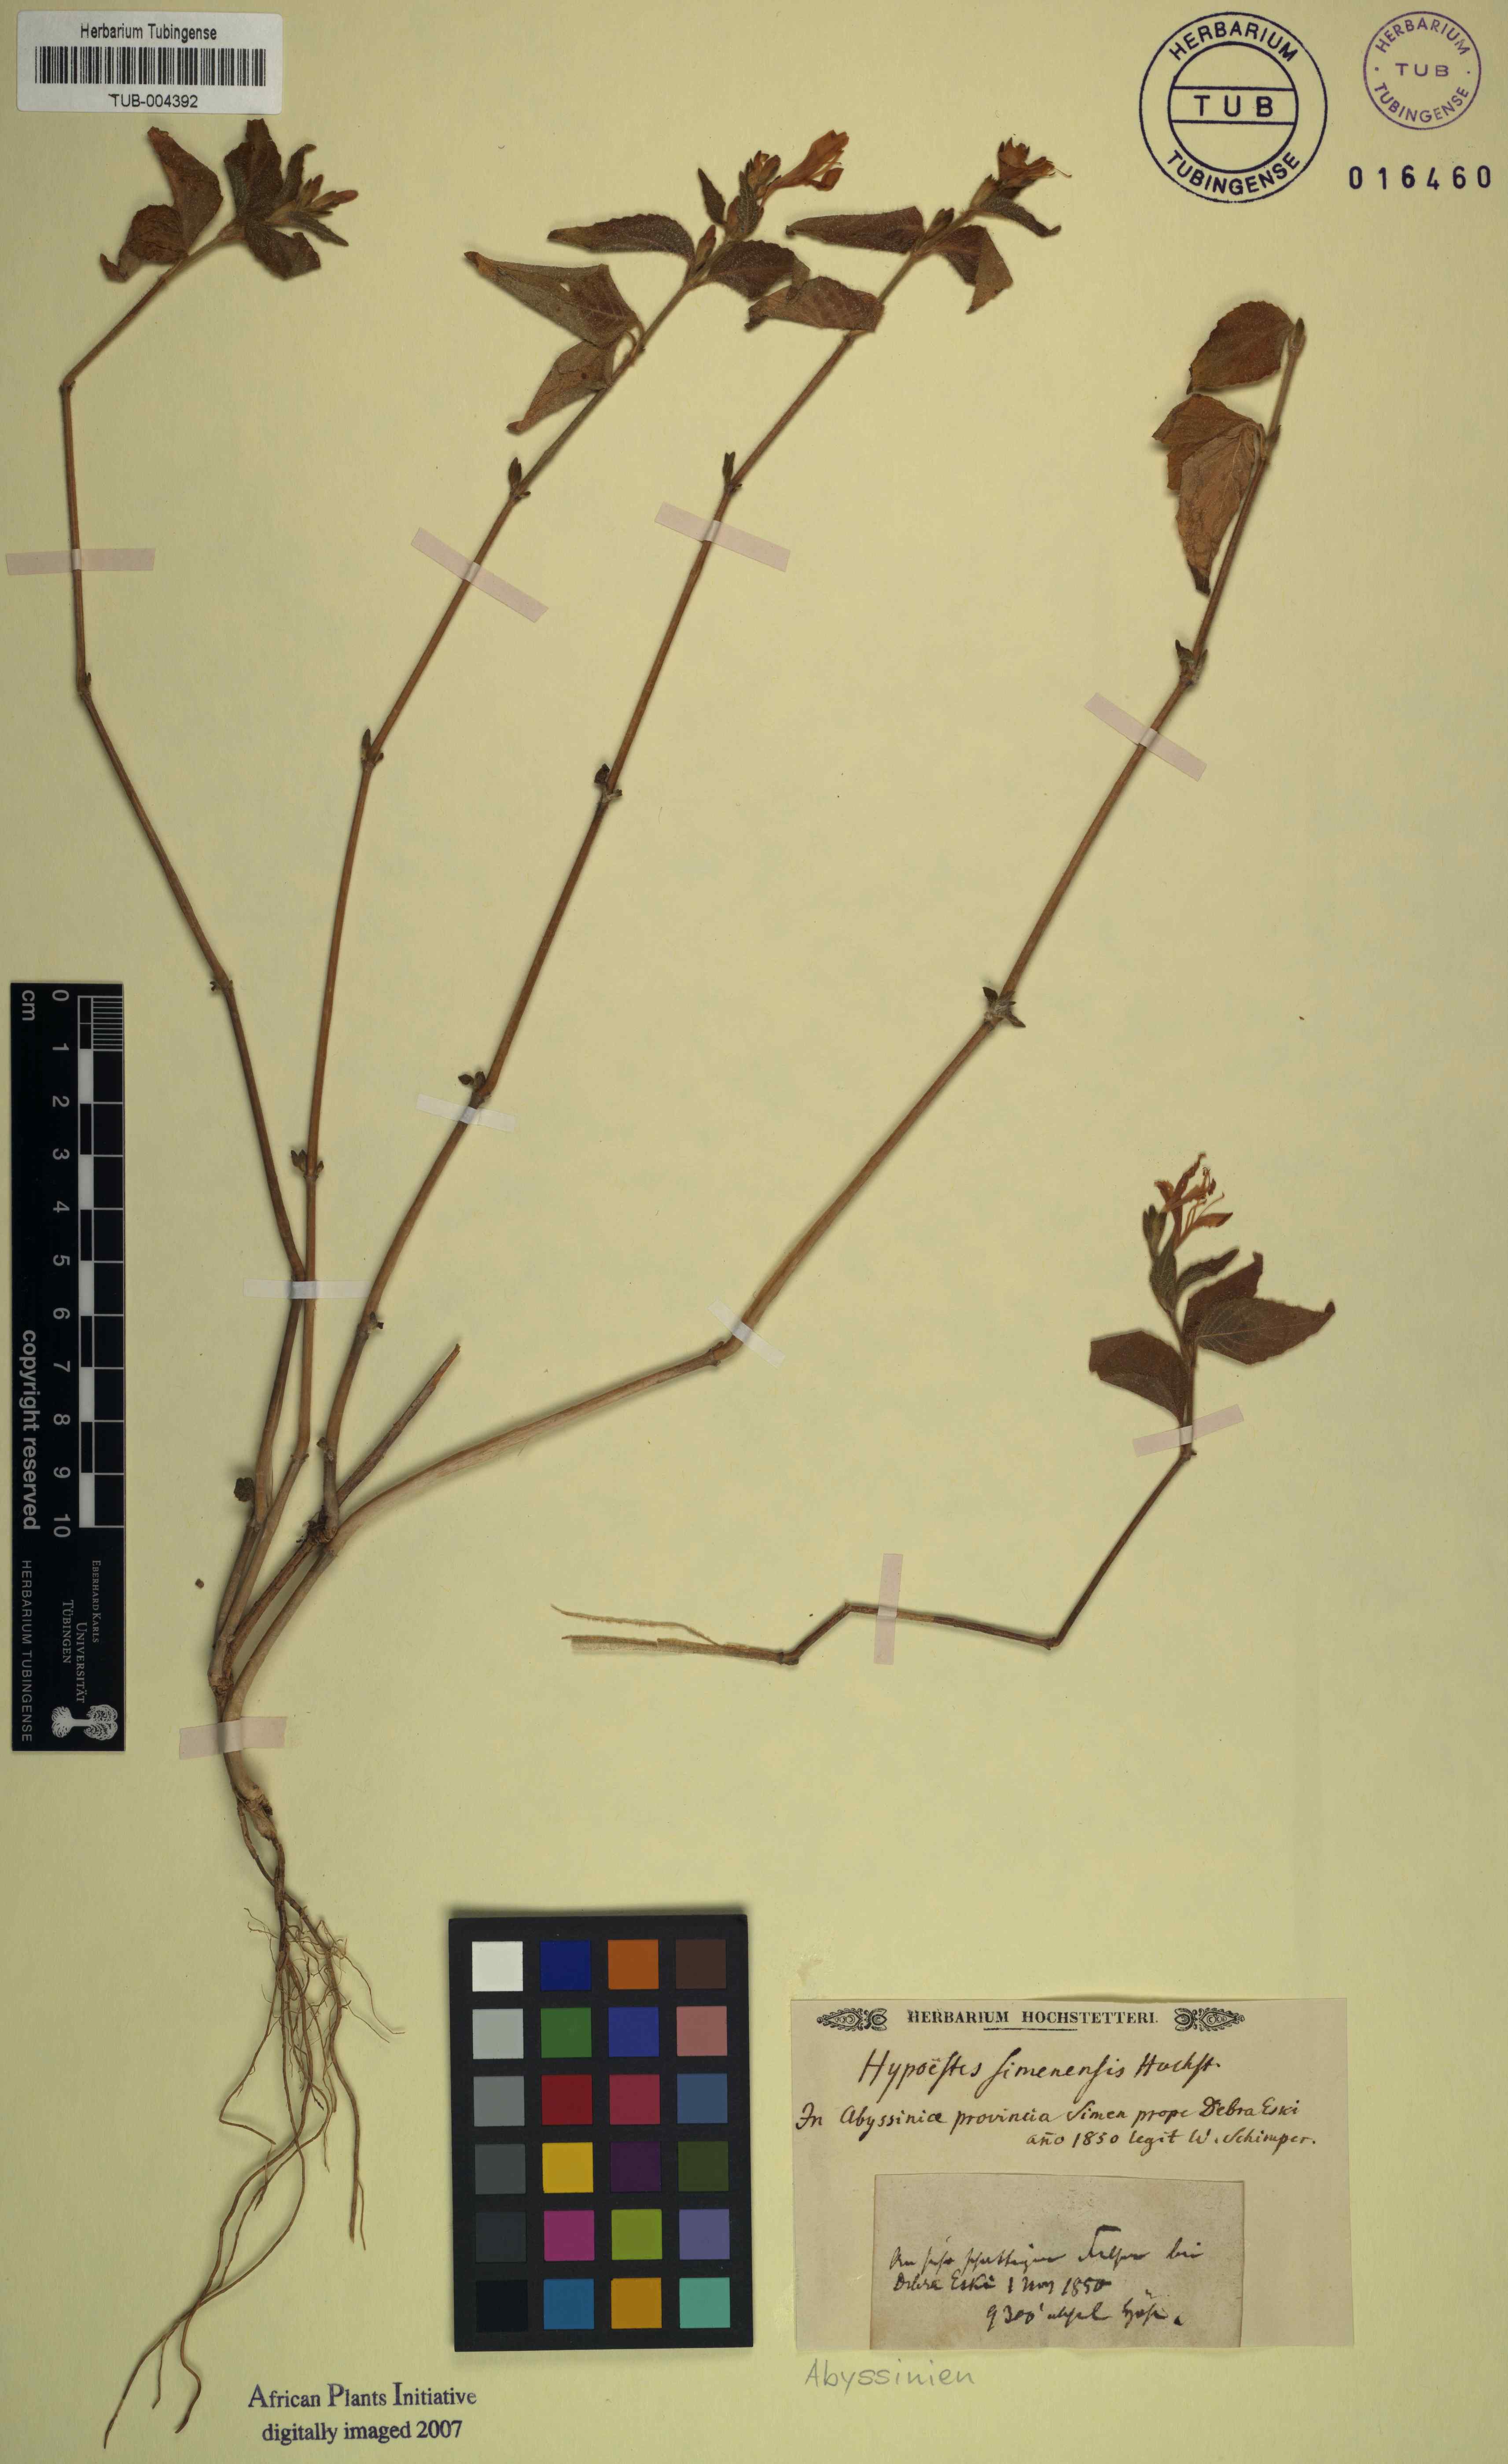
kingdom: Plantae
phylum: Tracheophyta
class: Magnoliopsida
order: Lamiales
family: Acanthaceae
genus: Hypoestes
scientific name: Hypoestes triflora
